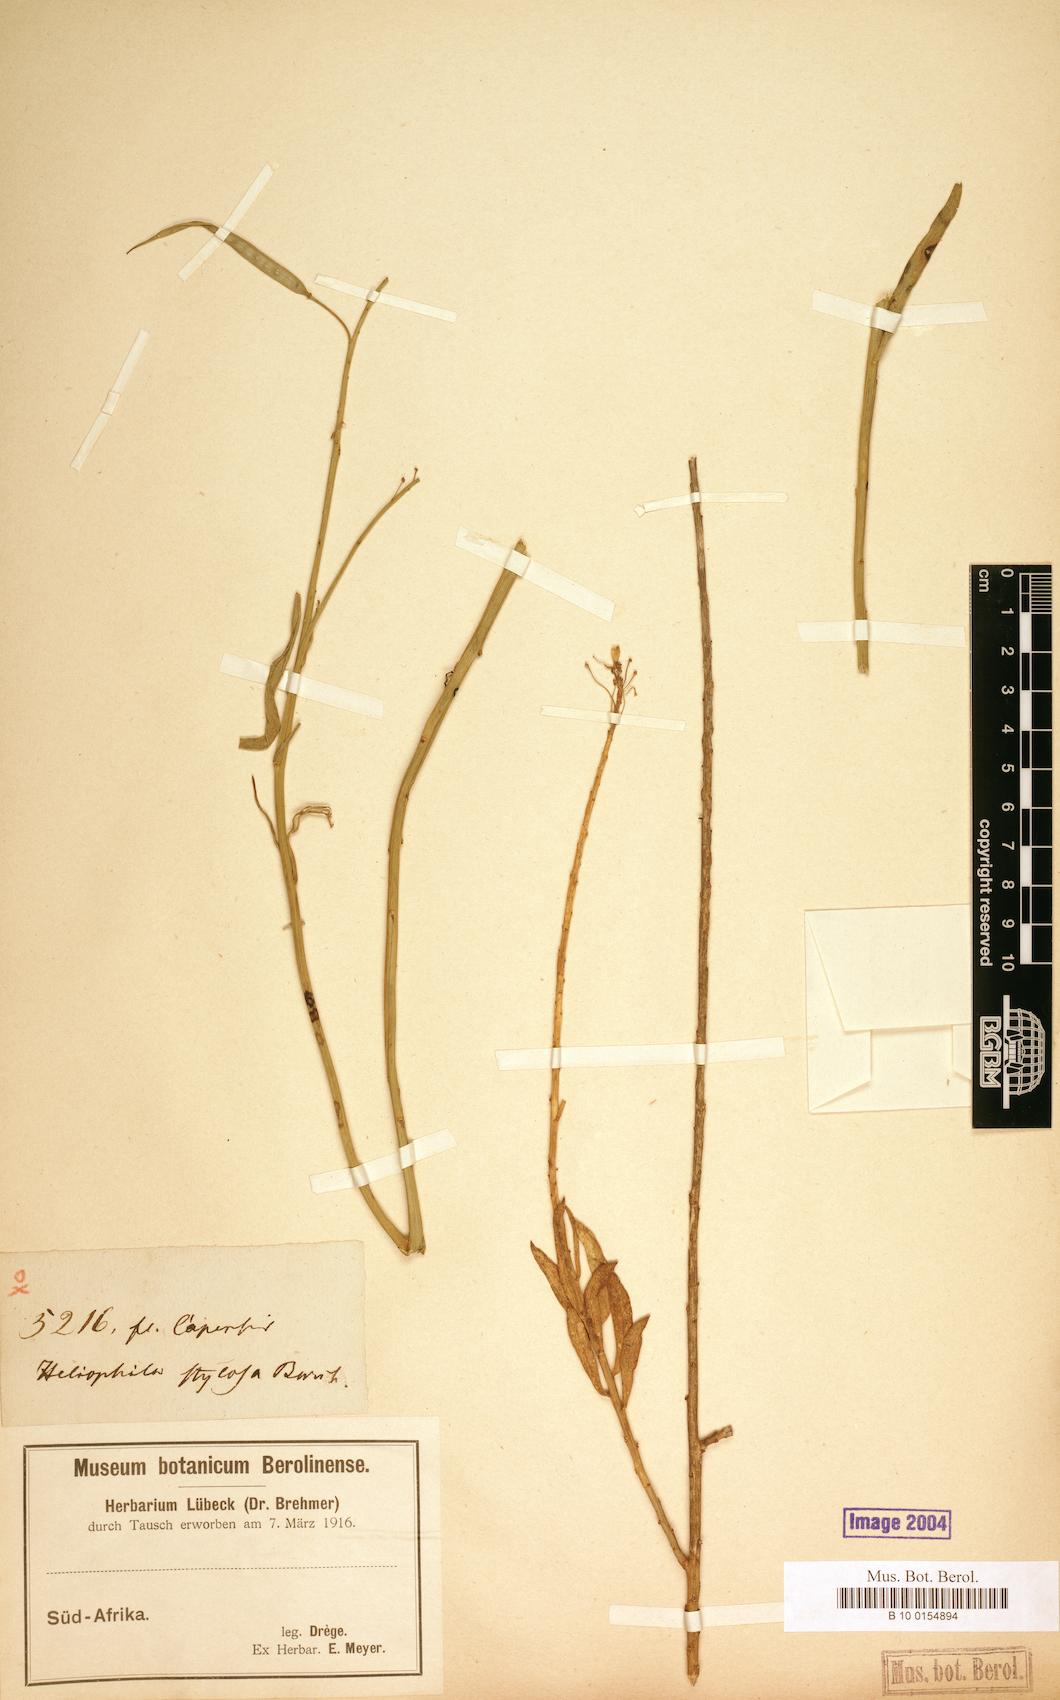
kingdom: Plantae
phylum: Tracheophyta
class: Magnoliopsida
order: Brassicales
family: Brassicaceae
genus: Heliophila
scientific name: Heliophila elongata
